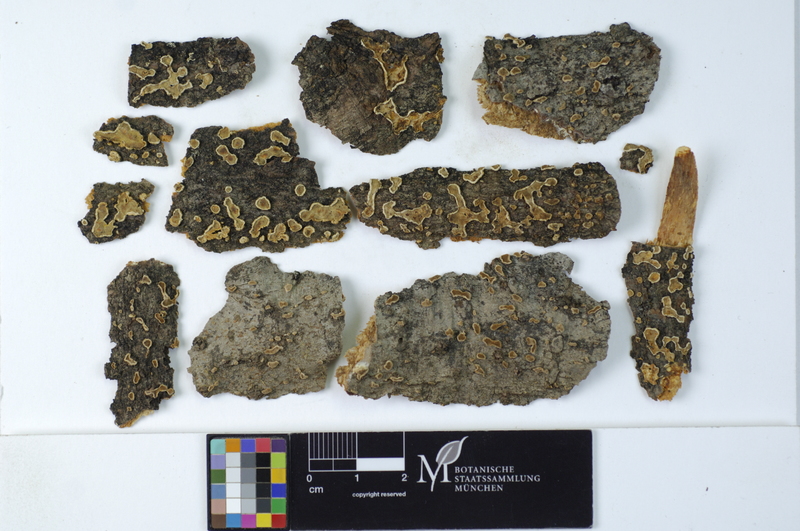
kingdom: Plantae
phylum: Tracheophyta
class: Pinopsida
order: Pinales
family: Pinaceae
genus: Abies
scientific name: Abies
